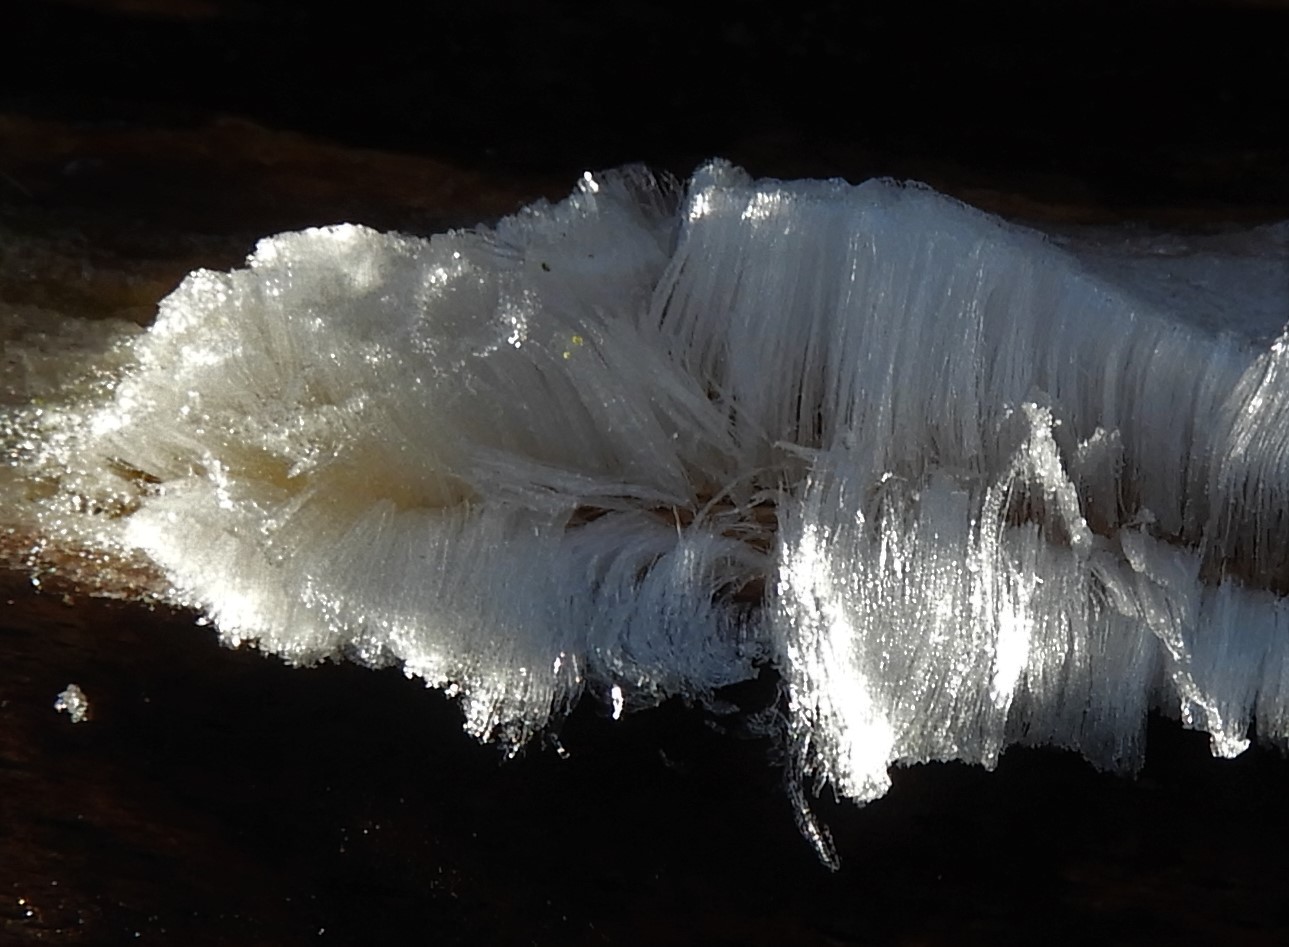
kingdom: Fungi
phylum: Basidiomycota
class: Tremellomycetes
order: Tremellales
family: Exidiaceae
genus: Exidiopsis
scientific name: Exidiopsis effusa
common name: smuk bævrehinde
